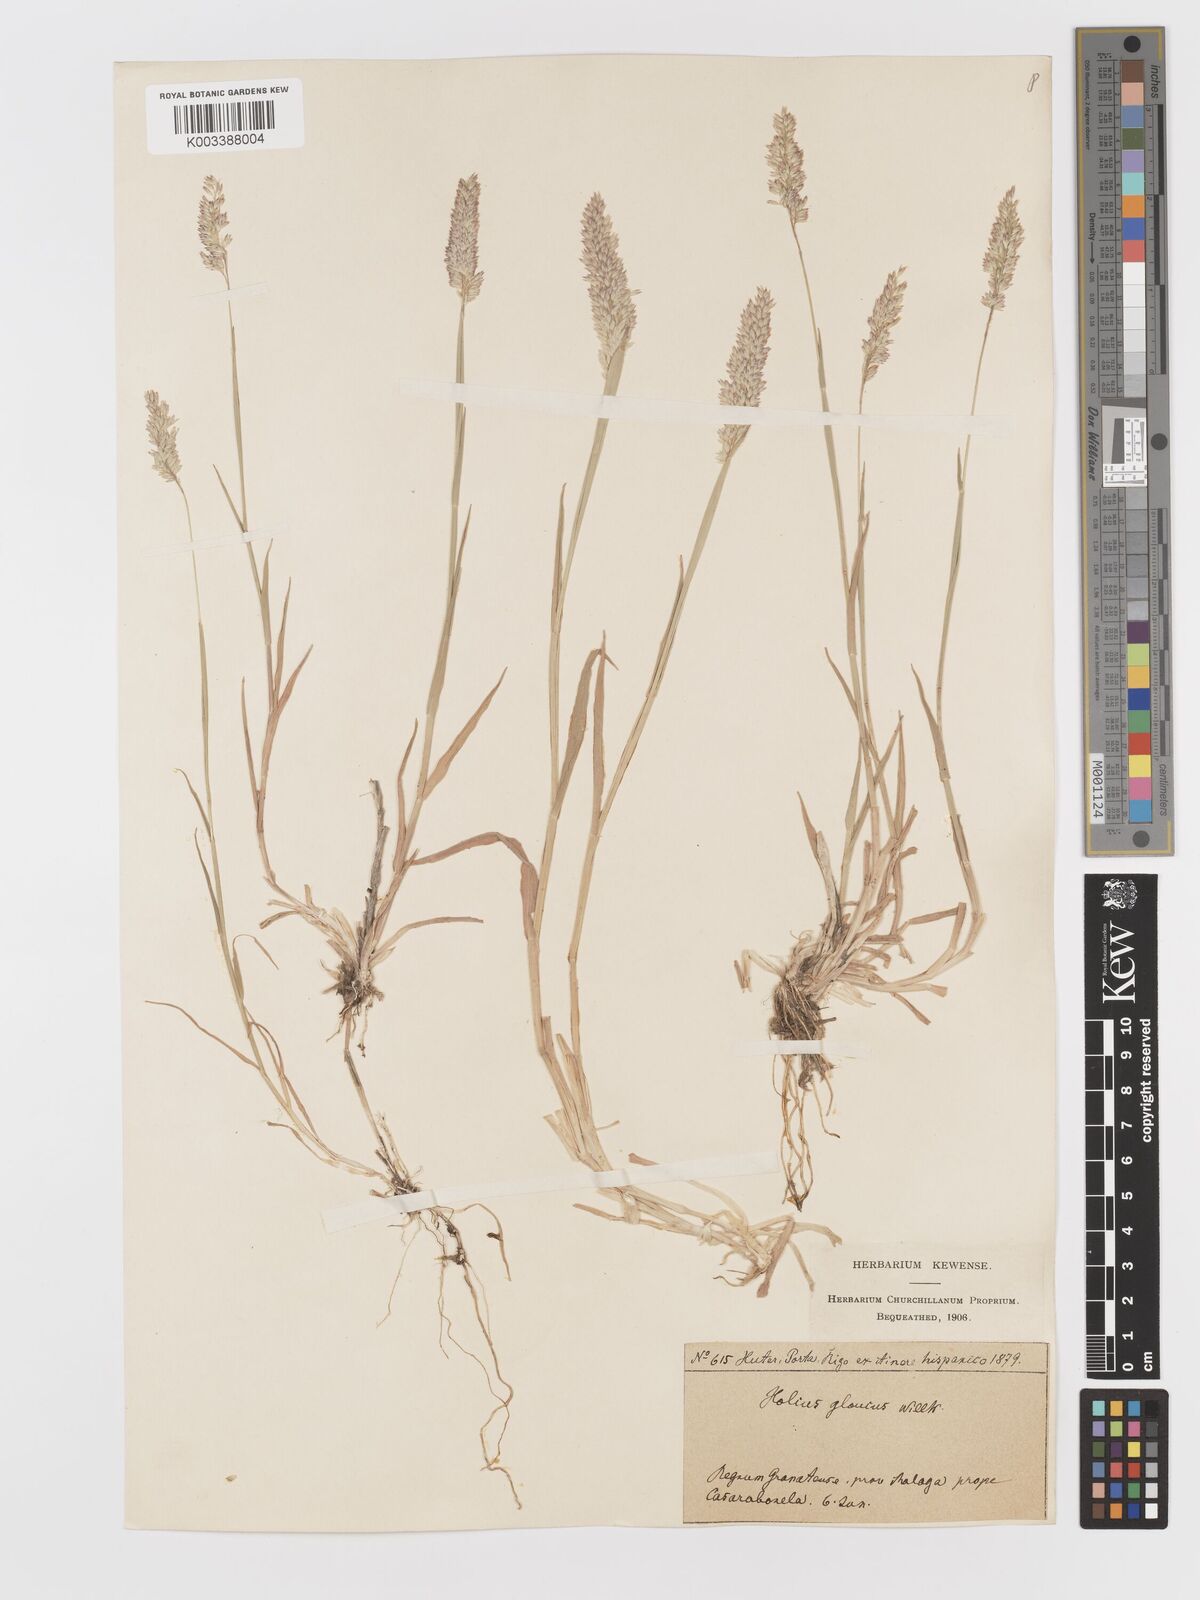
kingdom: Plantae
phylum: Tracheophyta
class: Liliopsida
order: Poales
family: Poaceae
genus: Holcus
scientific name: Holcus lanatus
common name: Yorkshire-fog
